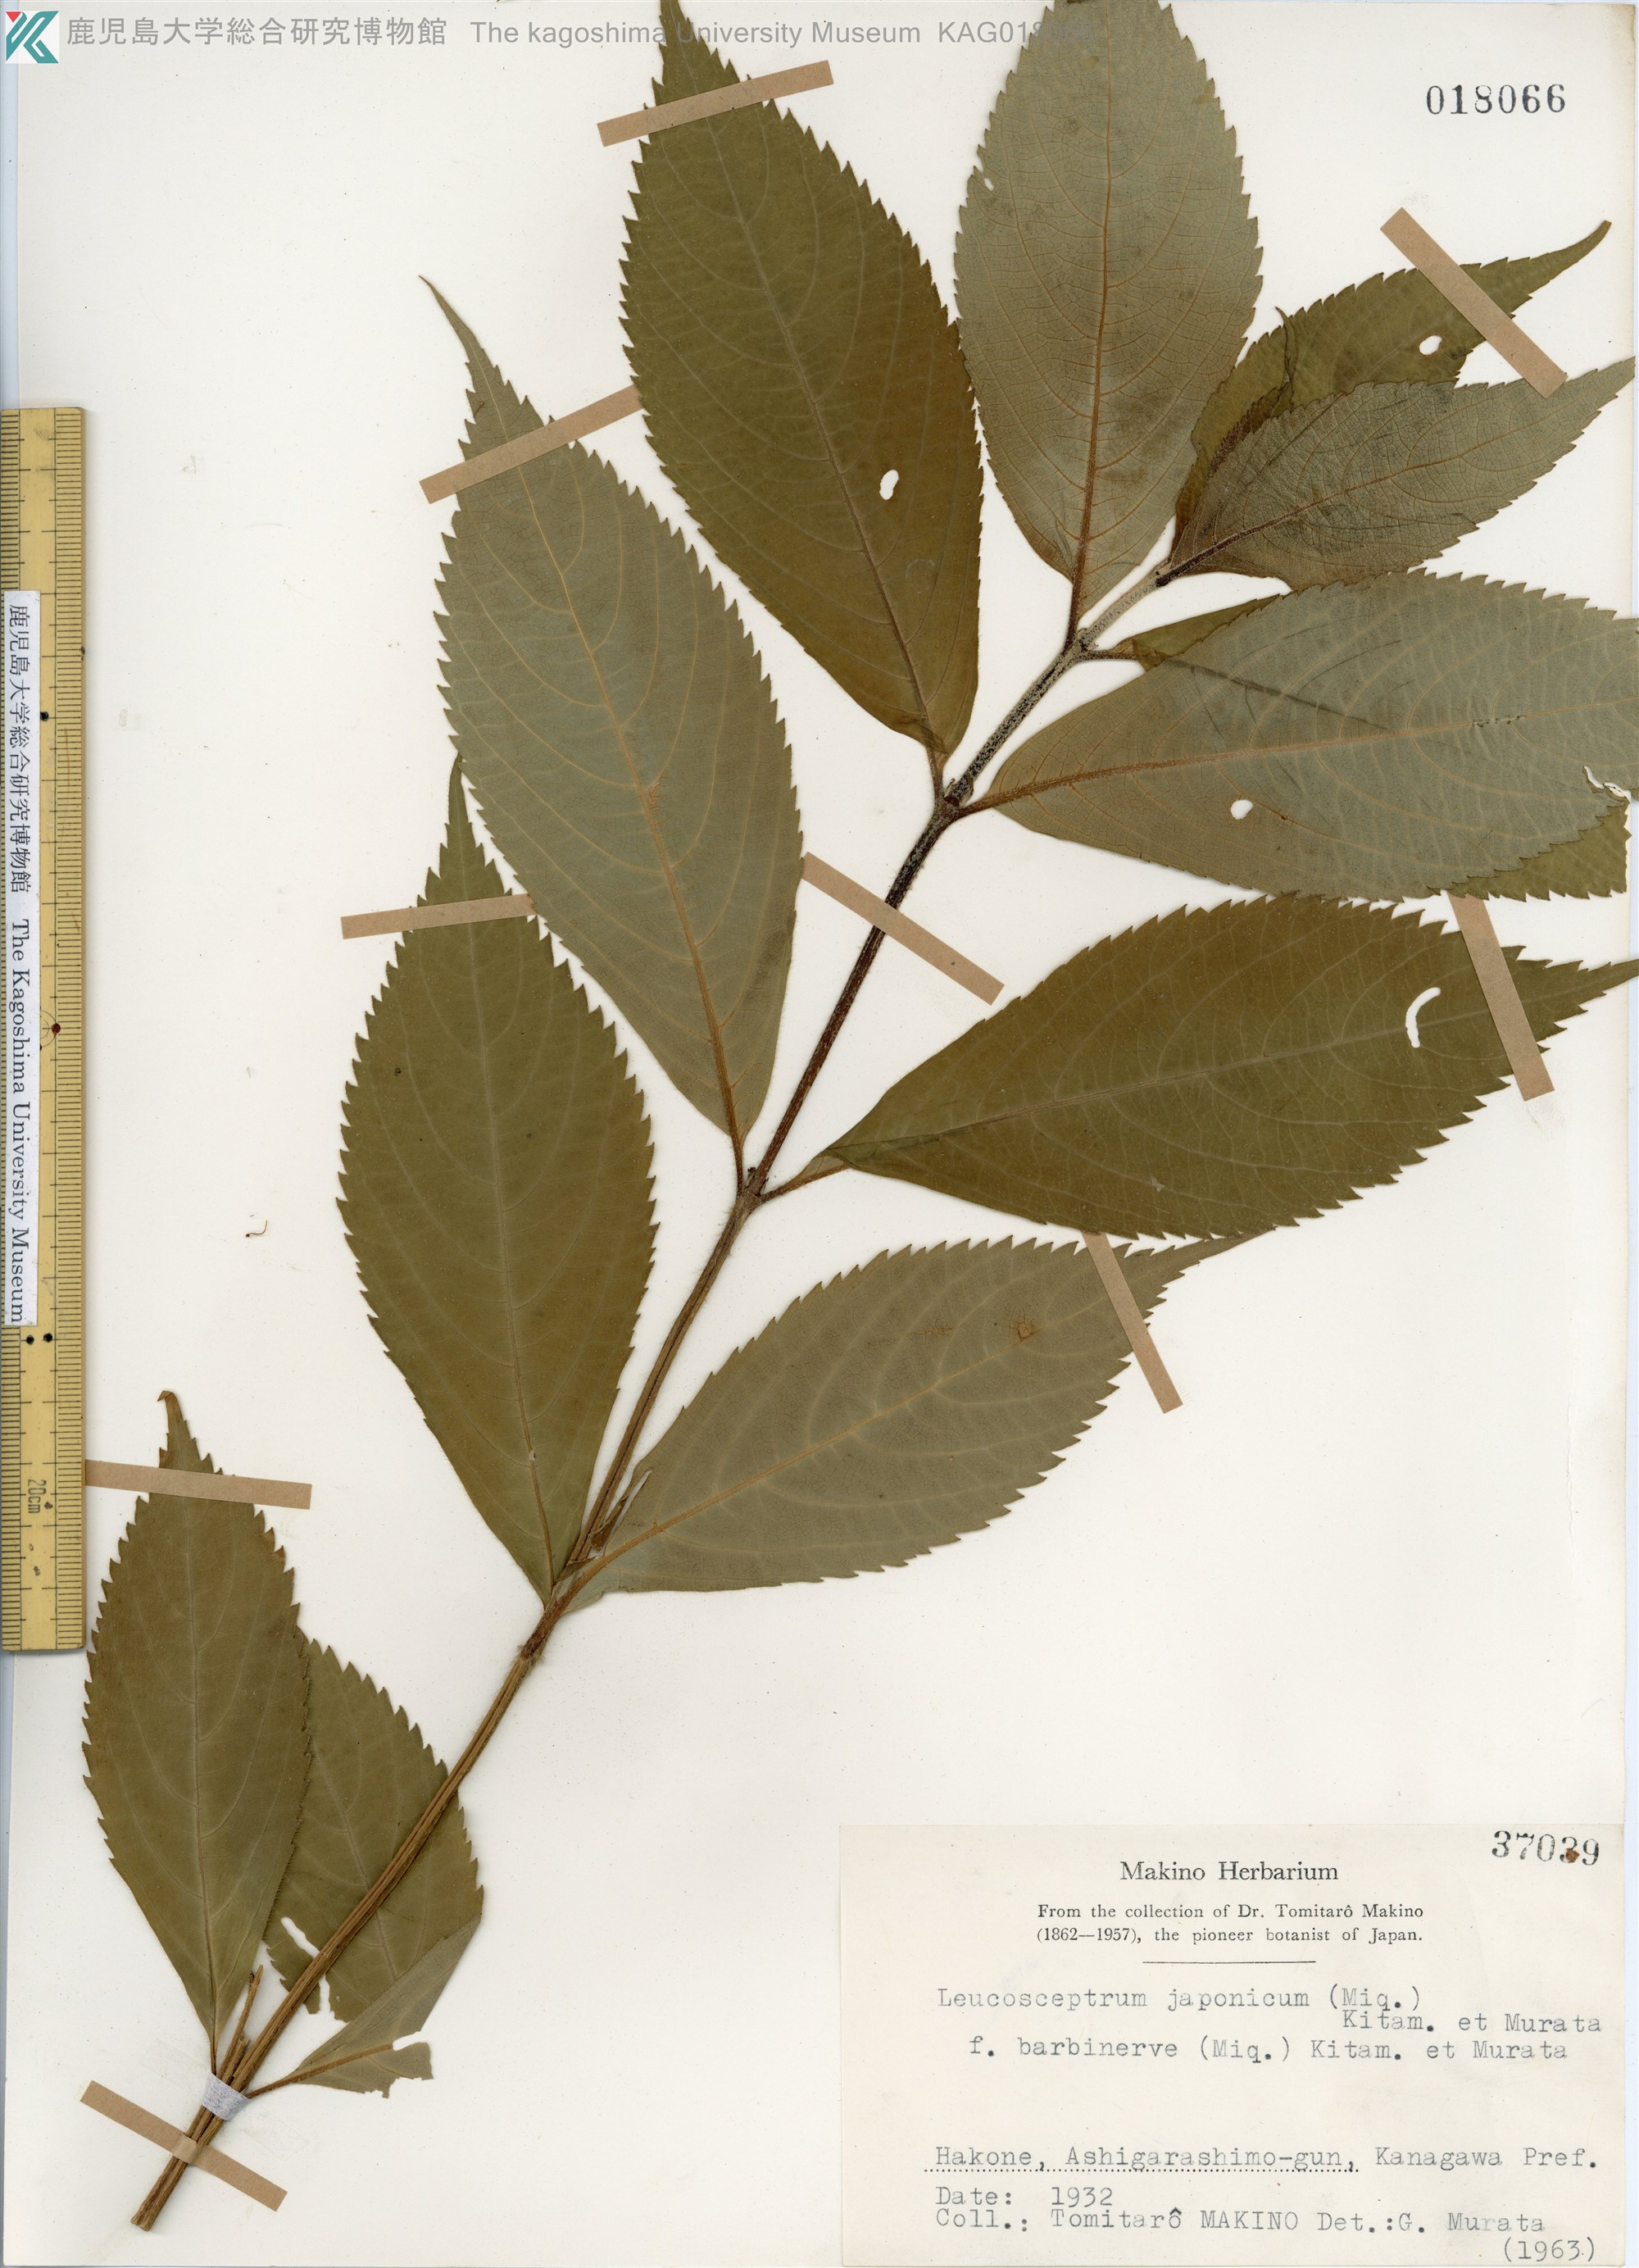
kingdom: Plantae
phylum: Tracheophyta
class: Magnoliopsida
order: Lamiales
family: Lamiaceae
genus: Comanthosphace
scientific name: Comanthosphace japonica
